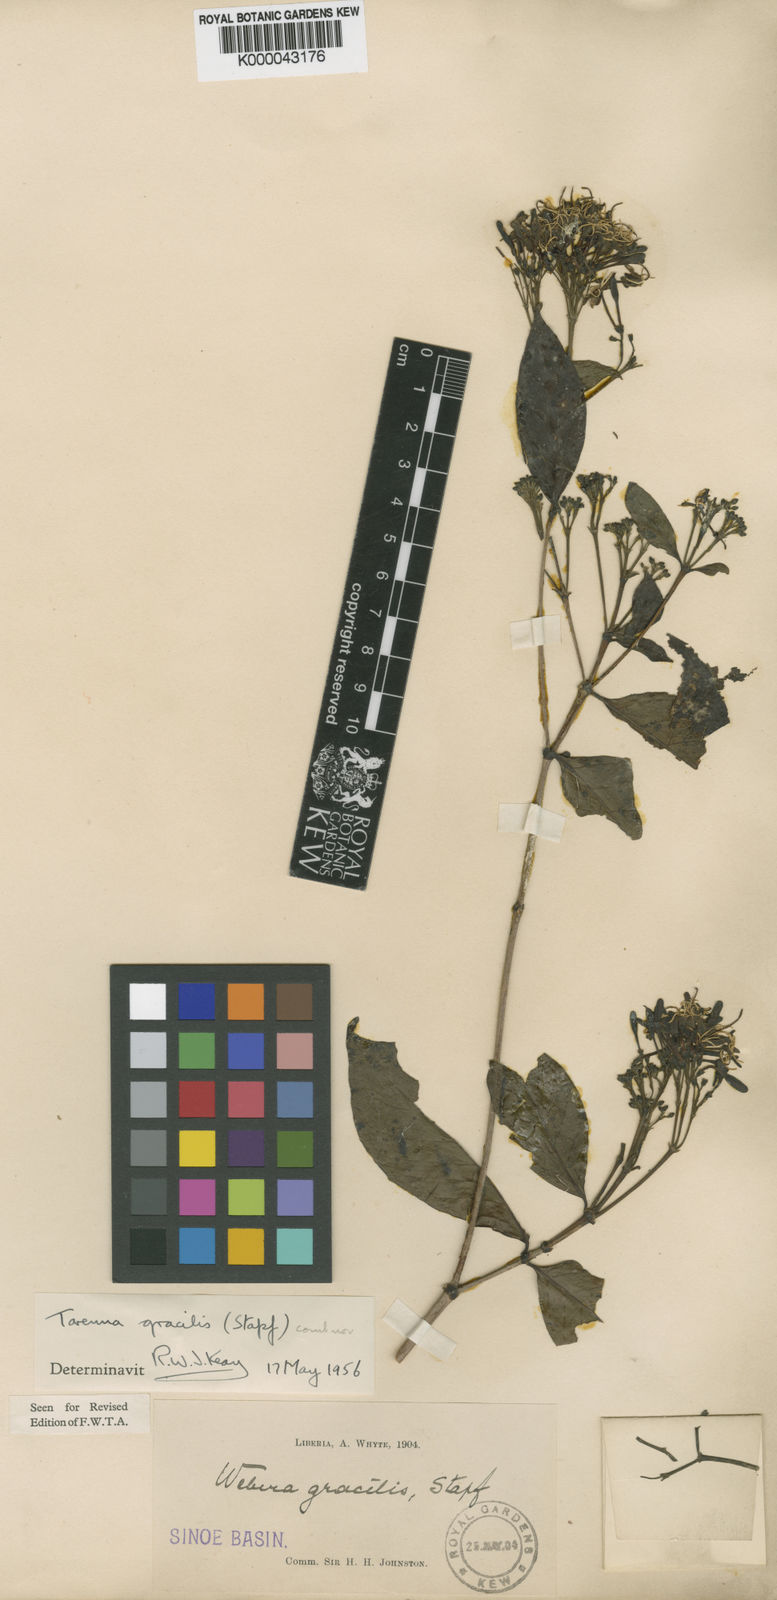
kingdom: Plantae
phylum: Tracheophyta
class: Magnoliopsida
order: Gentianales
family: Rubiaceae
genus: Tarenna
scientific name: Tarenna gracilis
